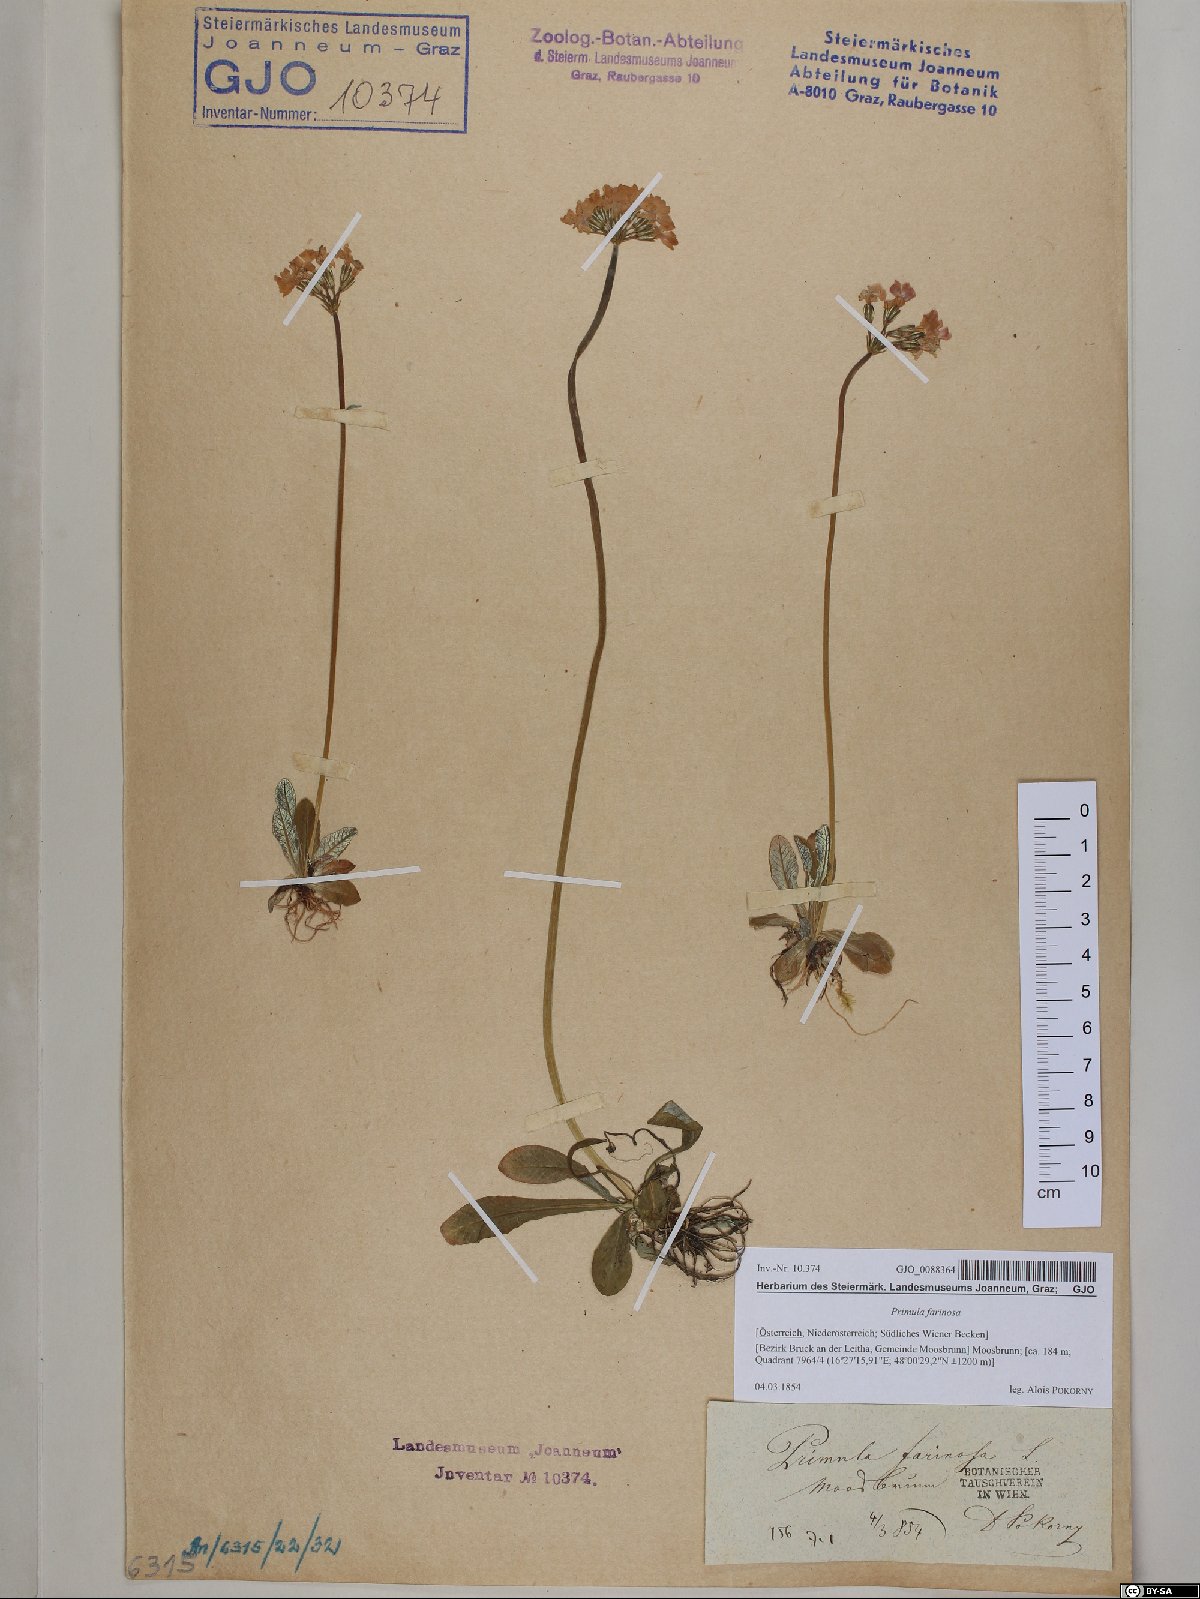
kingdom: Plantae
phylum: Tracheophyta
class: Magnoliopsida
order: Ericales
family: Primulaceae
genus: Primula
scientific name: Primula farinosa
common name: Bird's-eye primrose
